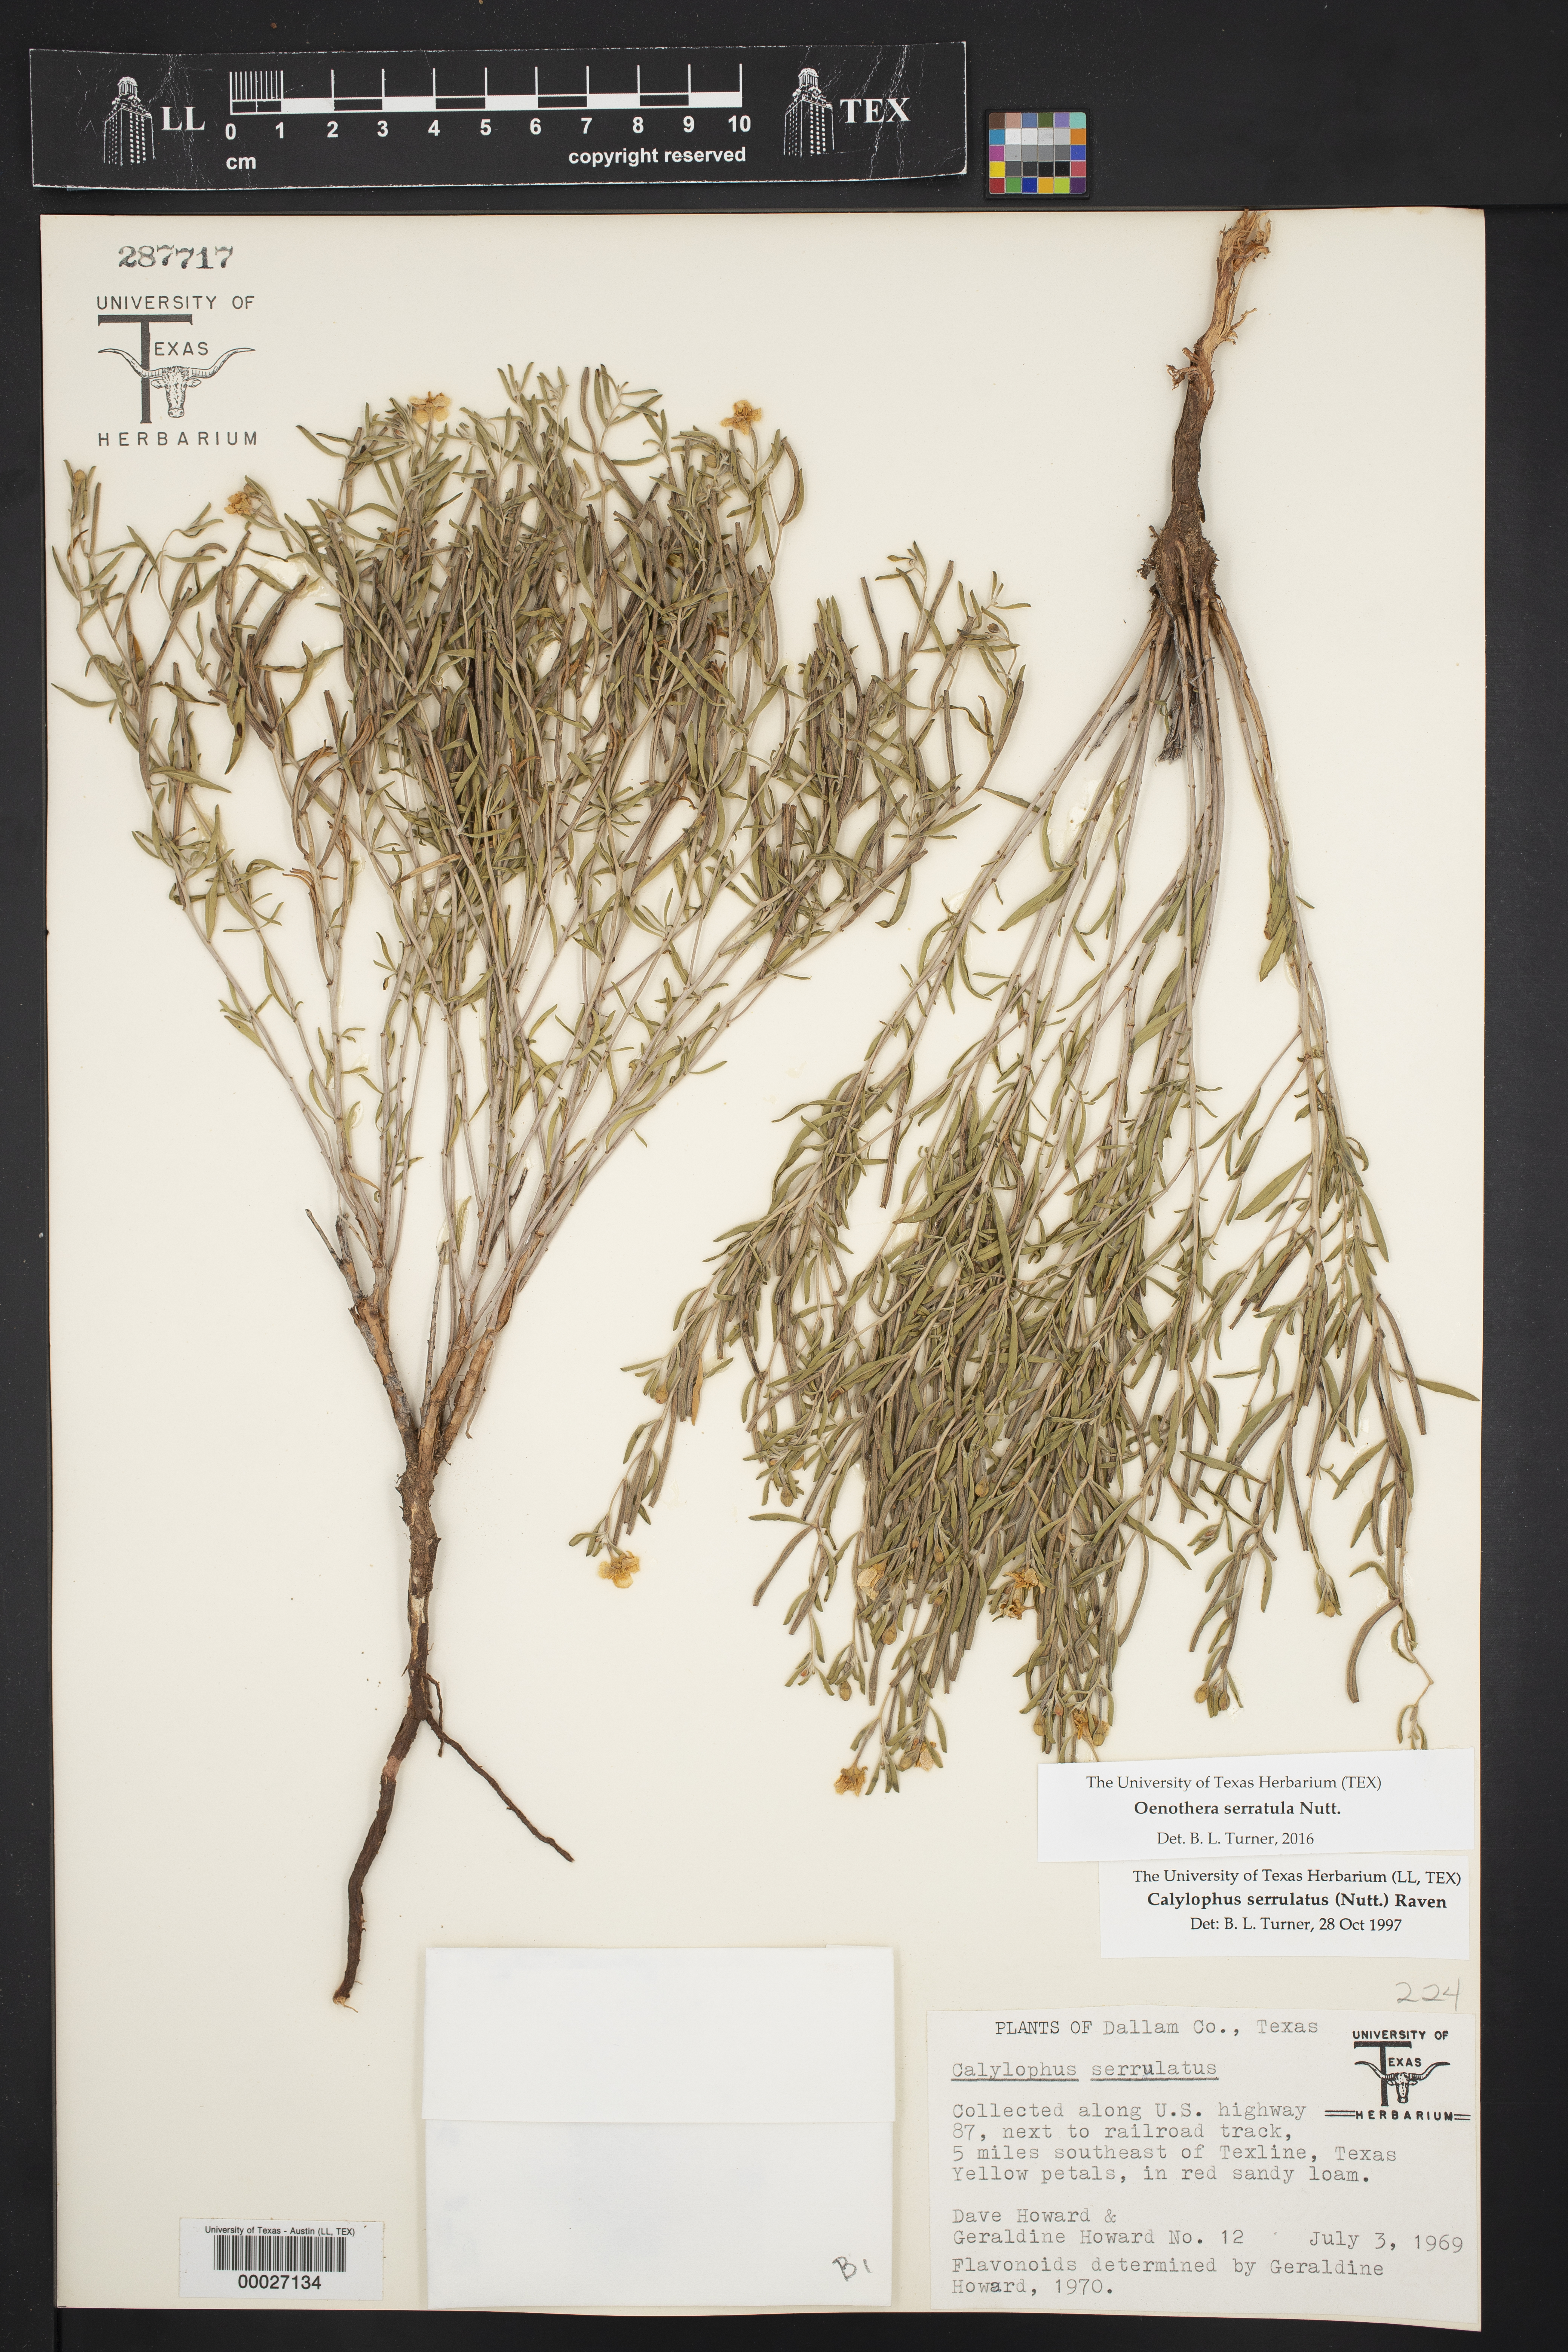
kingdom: Plantae
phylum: Tracheophyta
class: Magnoliopsida
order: Myrtales
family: Onagraceae
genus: Oenothera
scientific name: Oenothera serrulata
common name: Half-shrub calylophus
